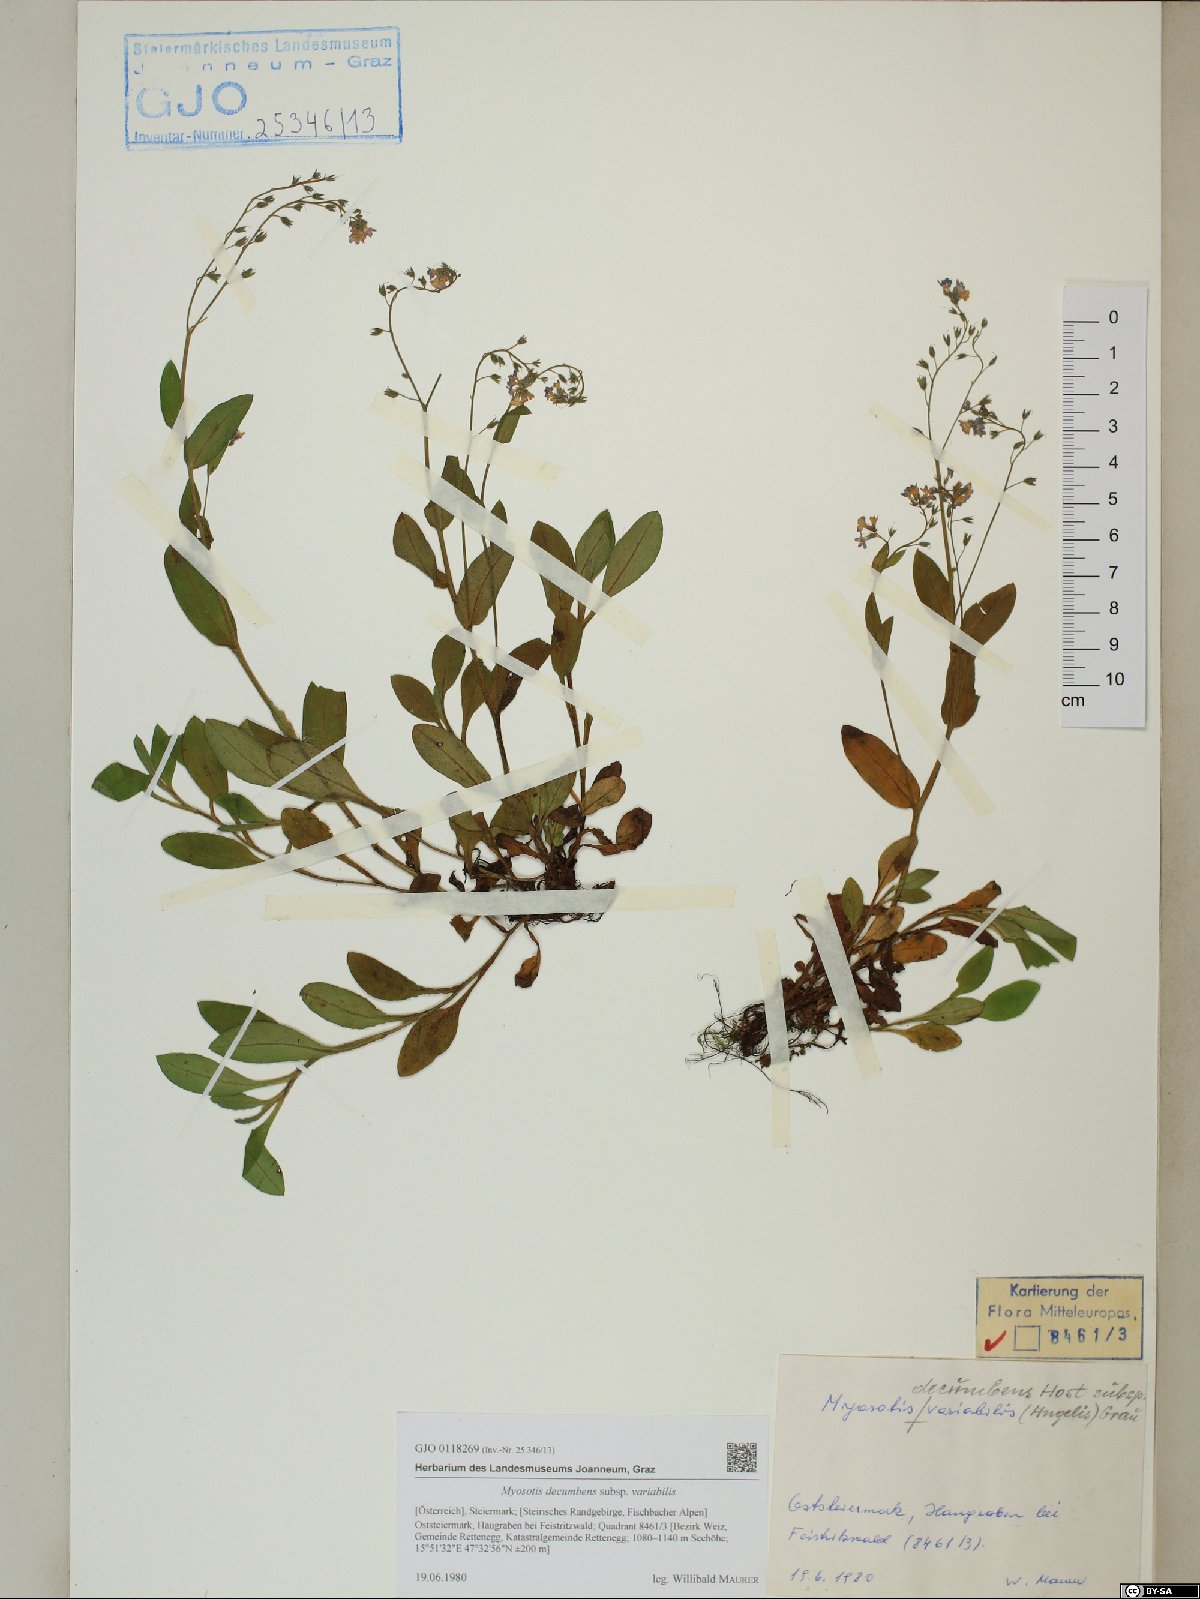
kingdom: Plantae
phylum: Tracheophyta
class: Magnoliopsida
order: Boraginales
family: Boraginaceae
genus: Myosotis
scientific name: Myosotis decumbens
